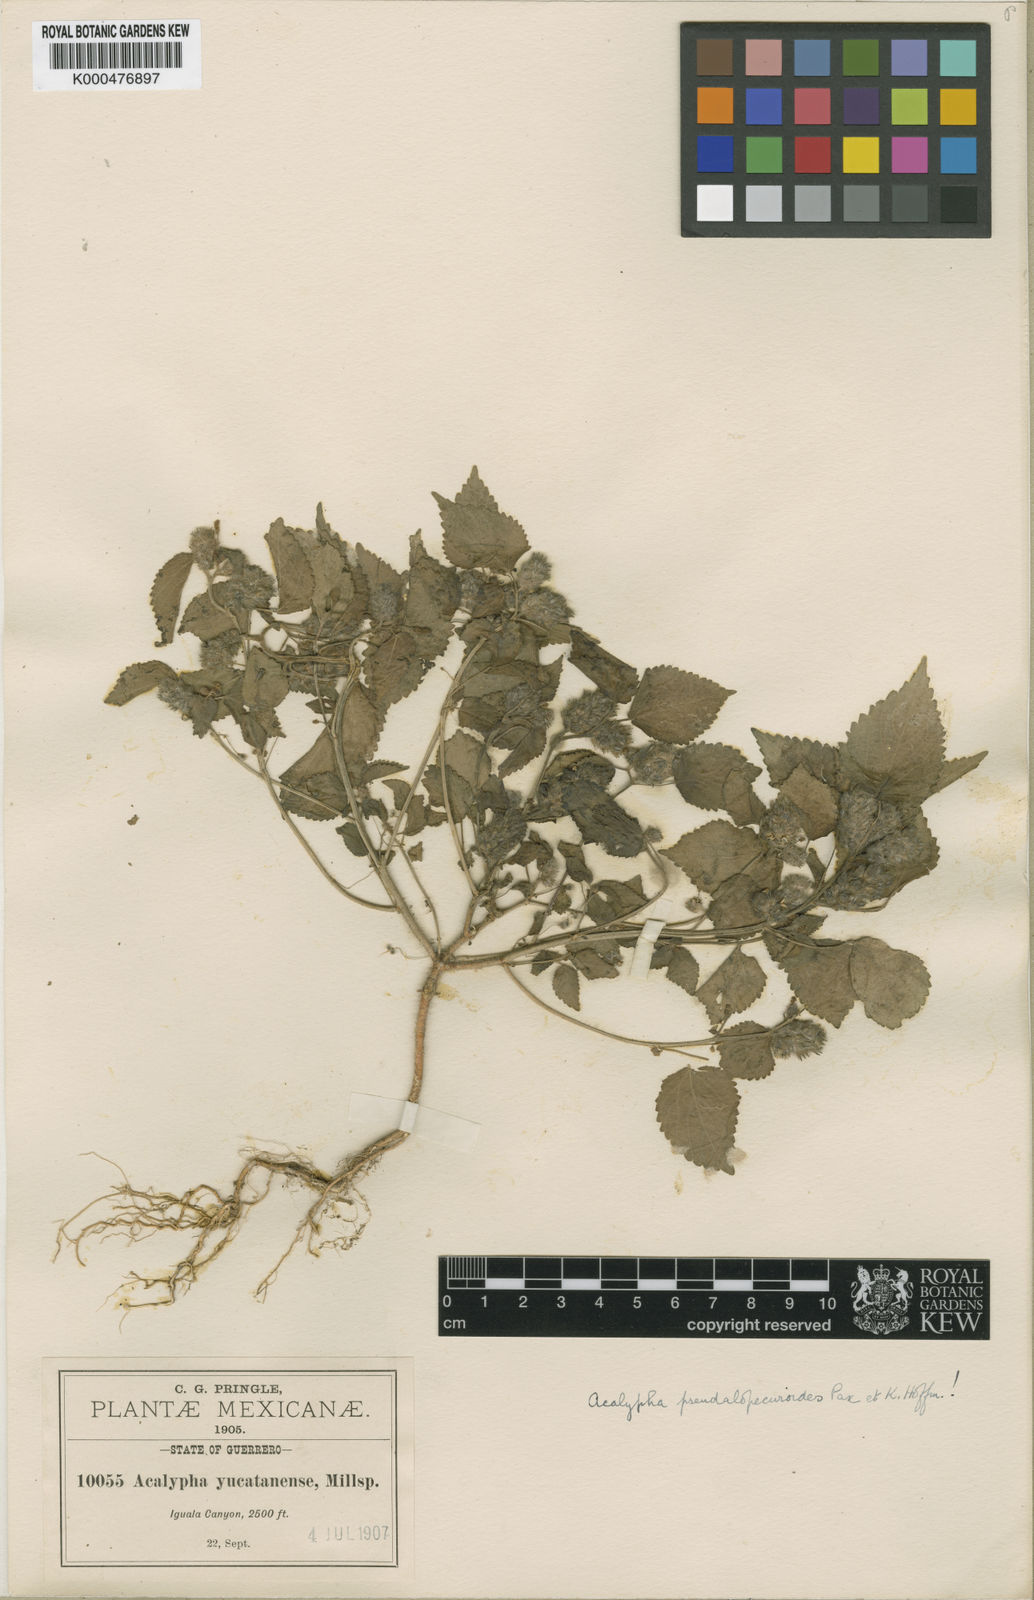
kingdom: Plantae
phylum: Tracheophyta
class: Magnoliopsida
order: Malpighiales
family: Euphorbiaceae
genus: Acalypha
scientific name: Acalypha pseudalopecuroides
